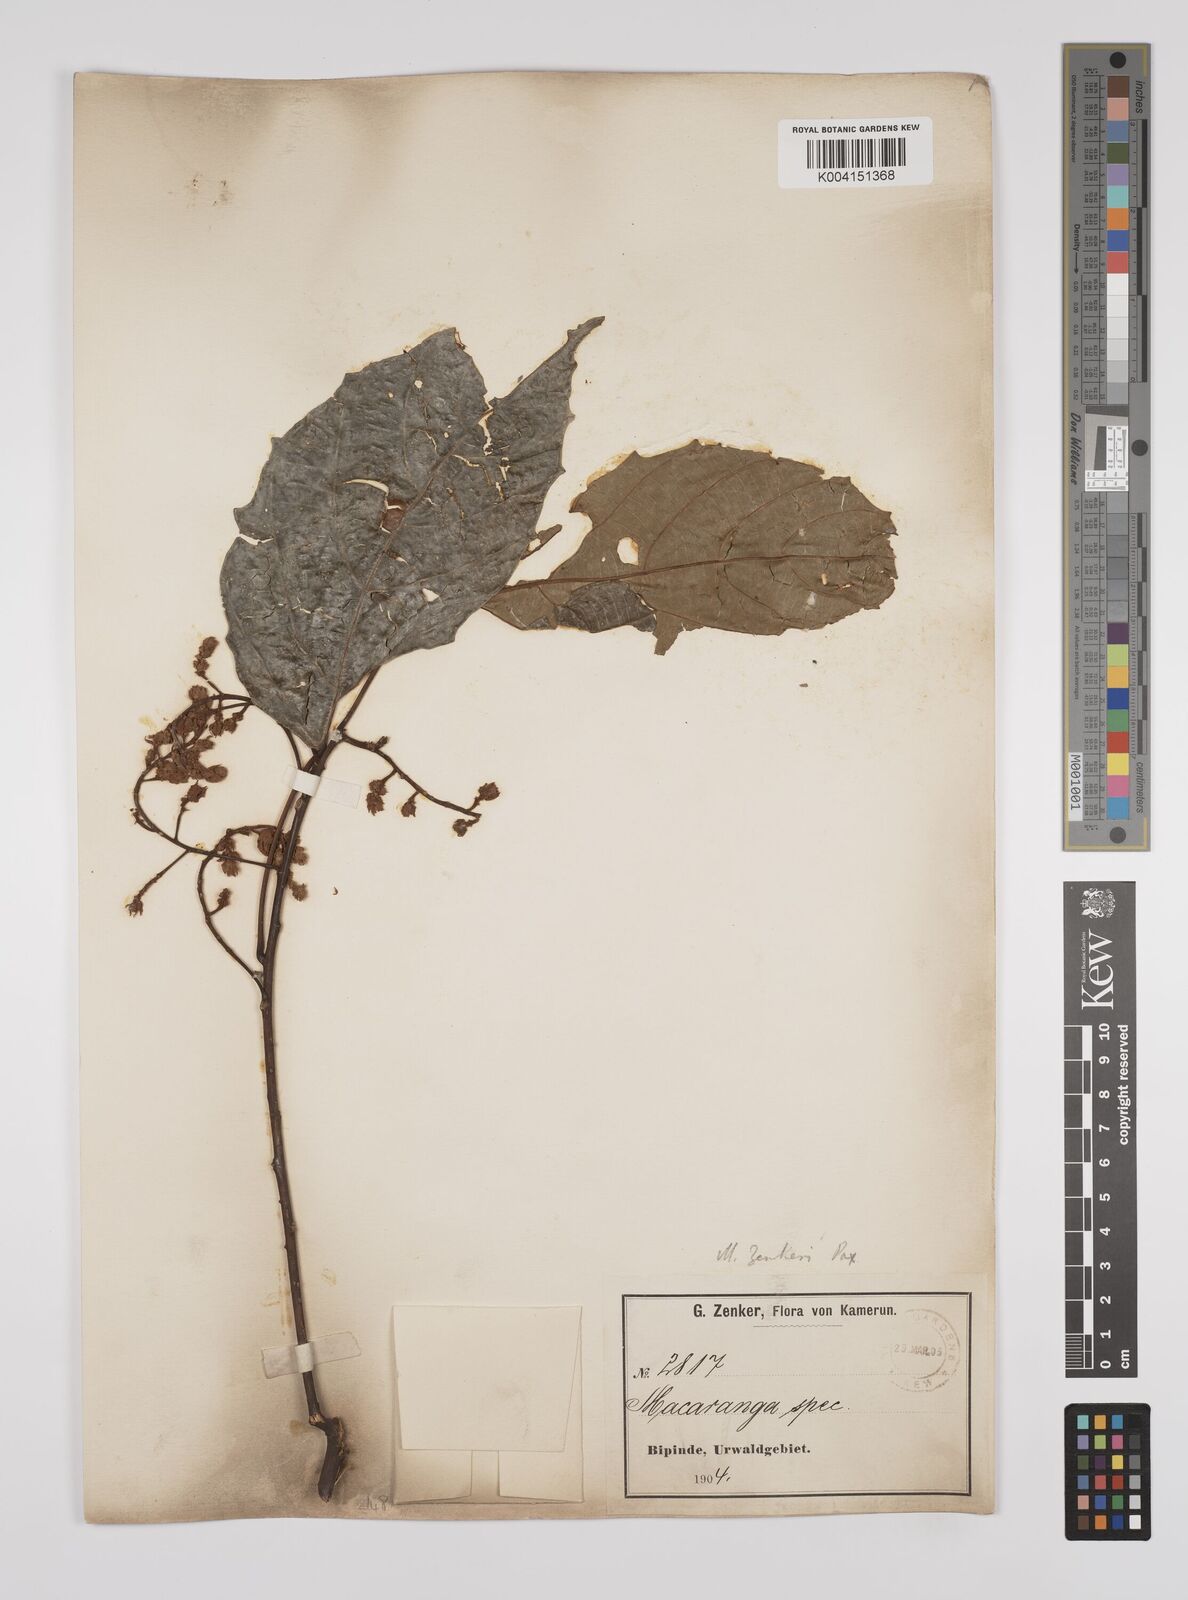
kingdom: Plantae
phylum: Tracheophyta
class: Magnoliopsida
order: Malpighiales
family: Euphorbiaceae
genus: Macaranga
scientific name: Macaranga monandra
